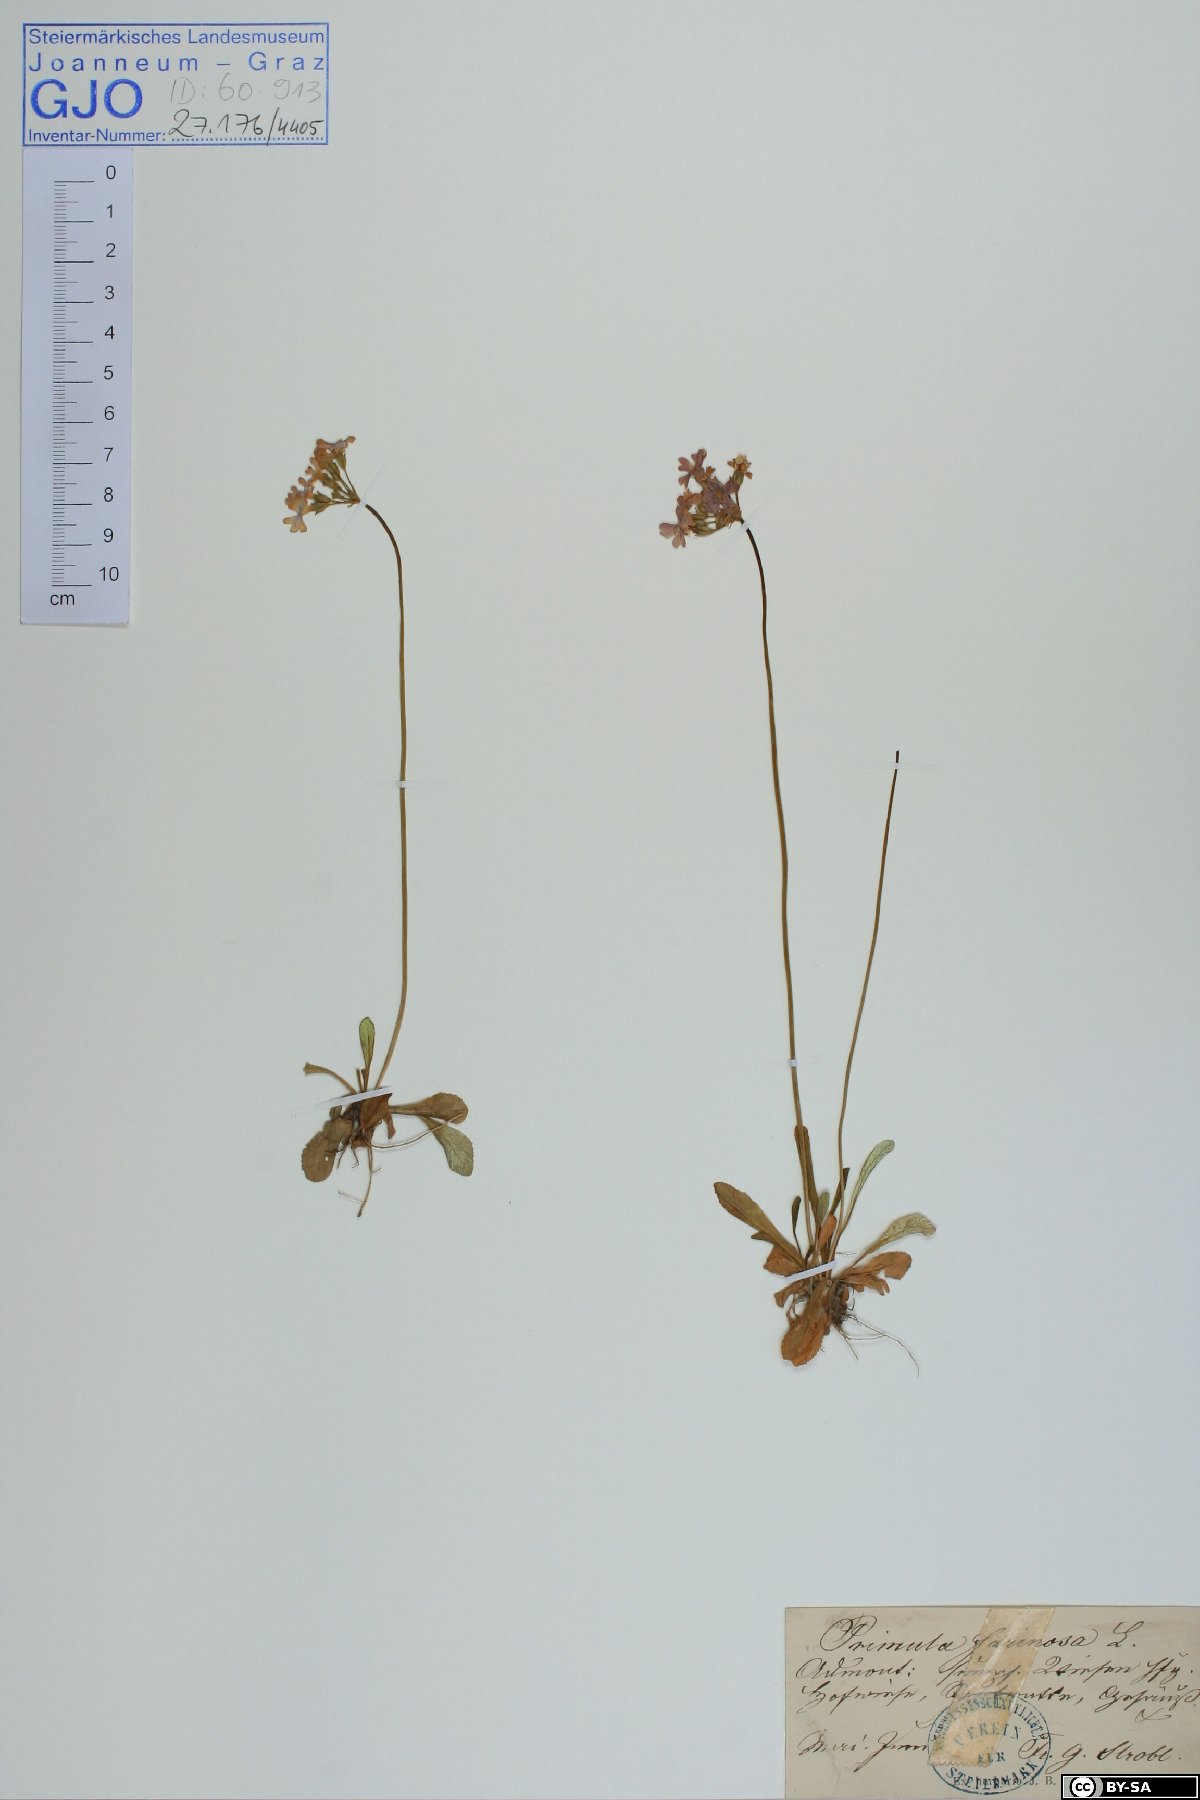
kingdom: Plantae
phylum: Tracheophyta
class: Magnoliopsida
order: Ericales
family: Primulaceae
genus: Primula
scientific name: Primula farinosa
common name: Bird's-eye primrose
